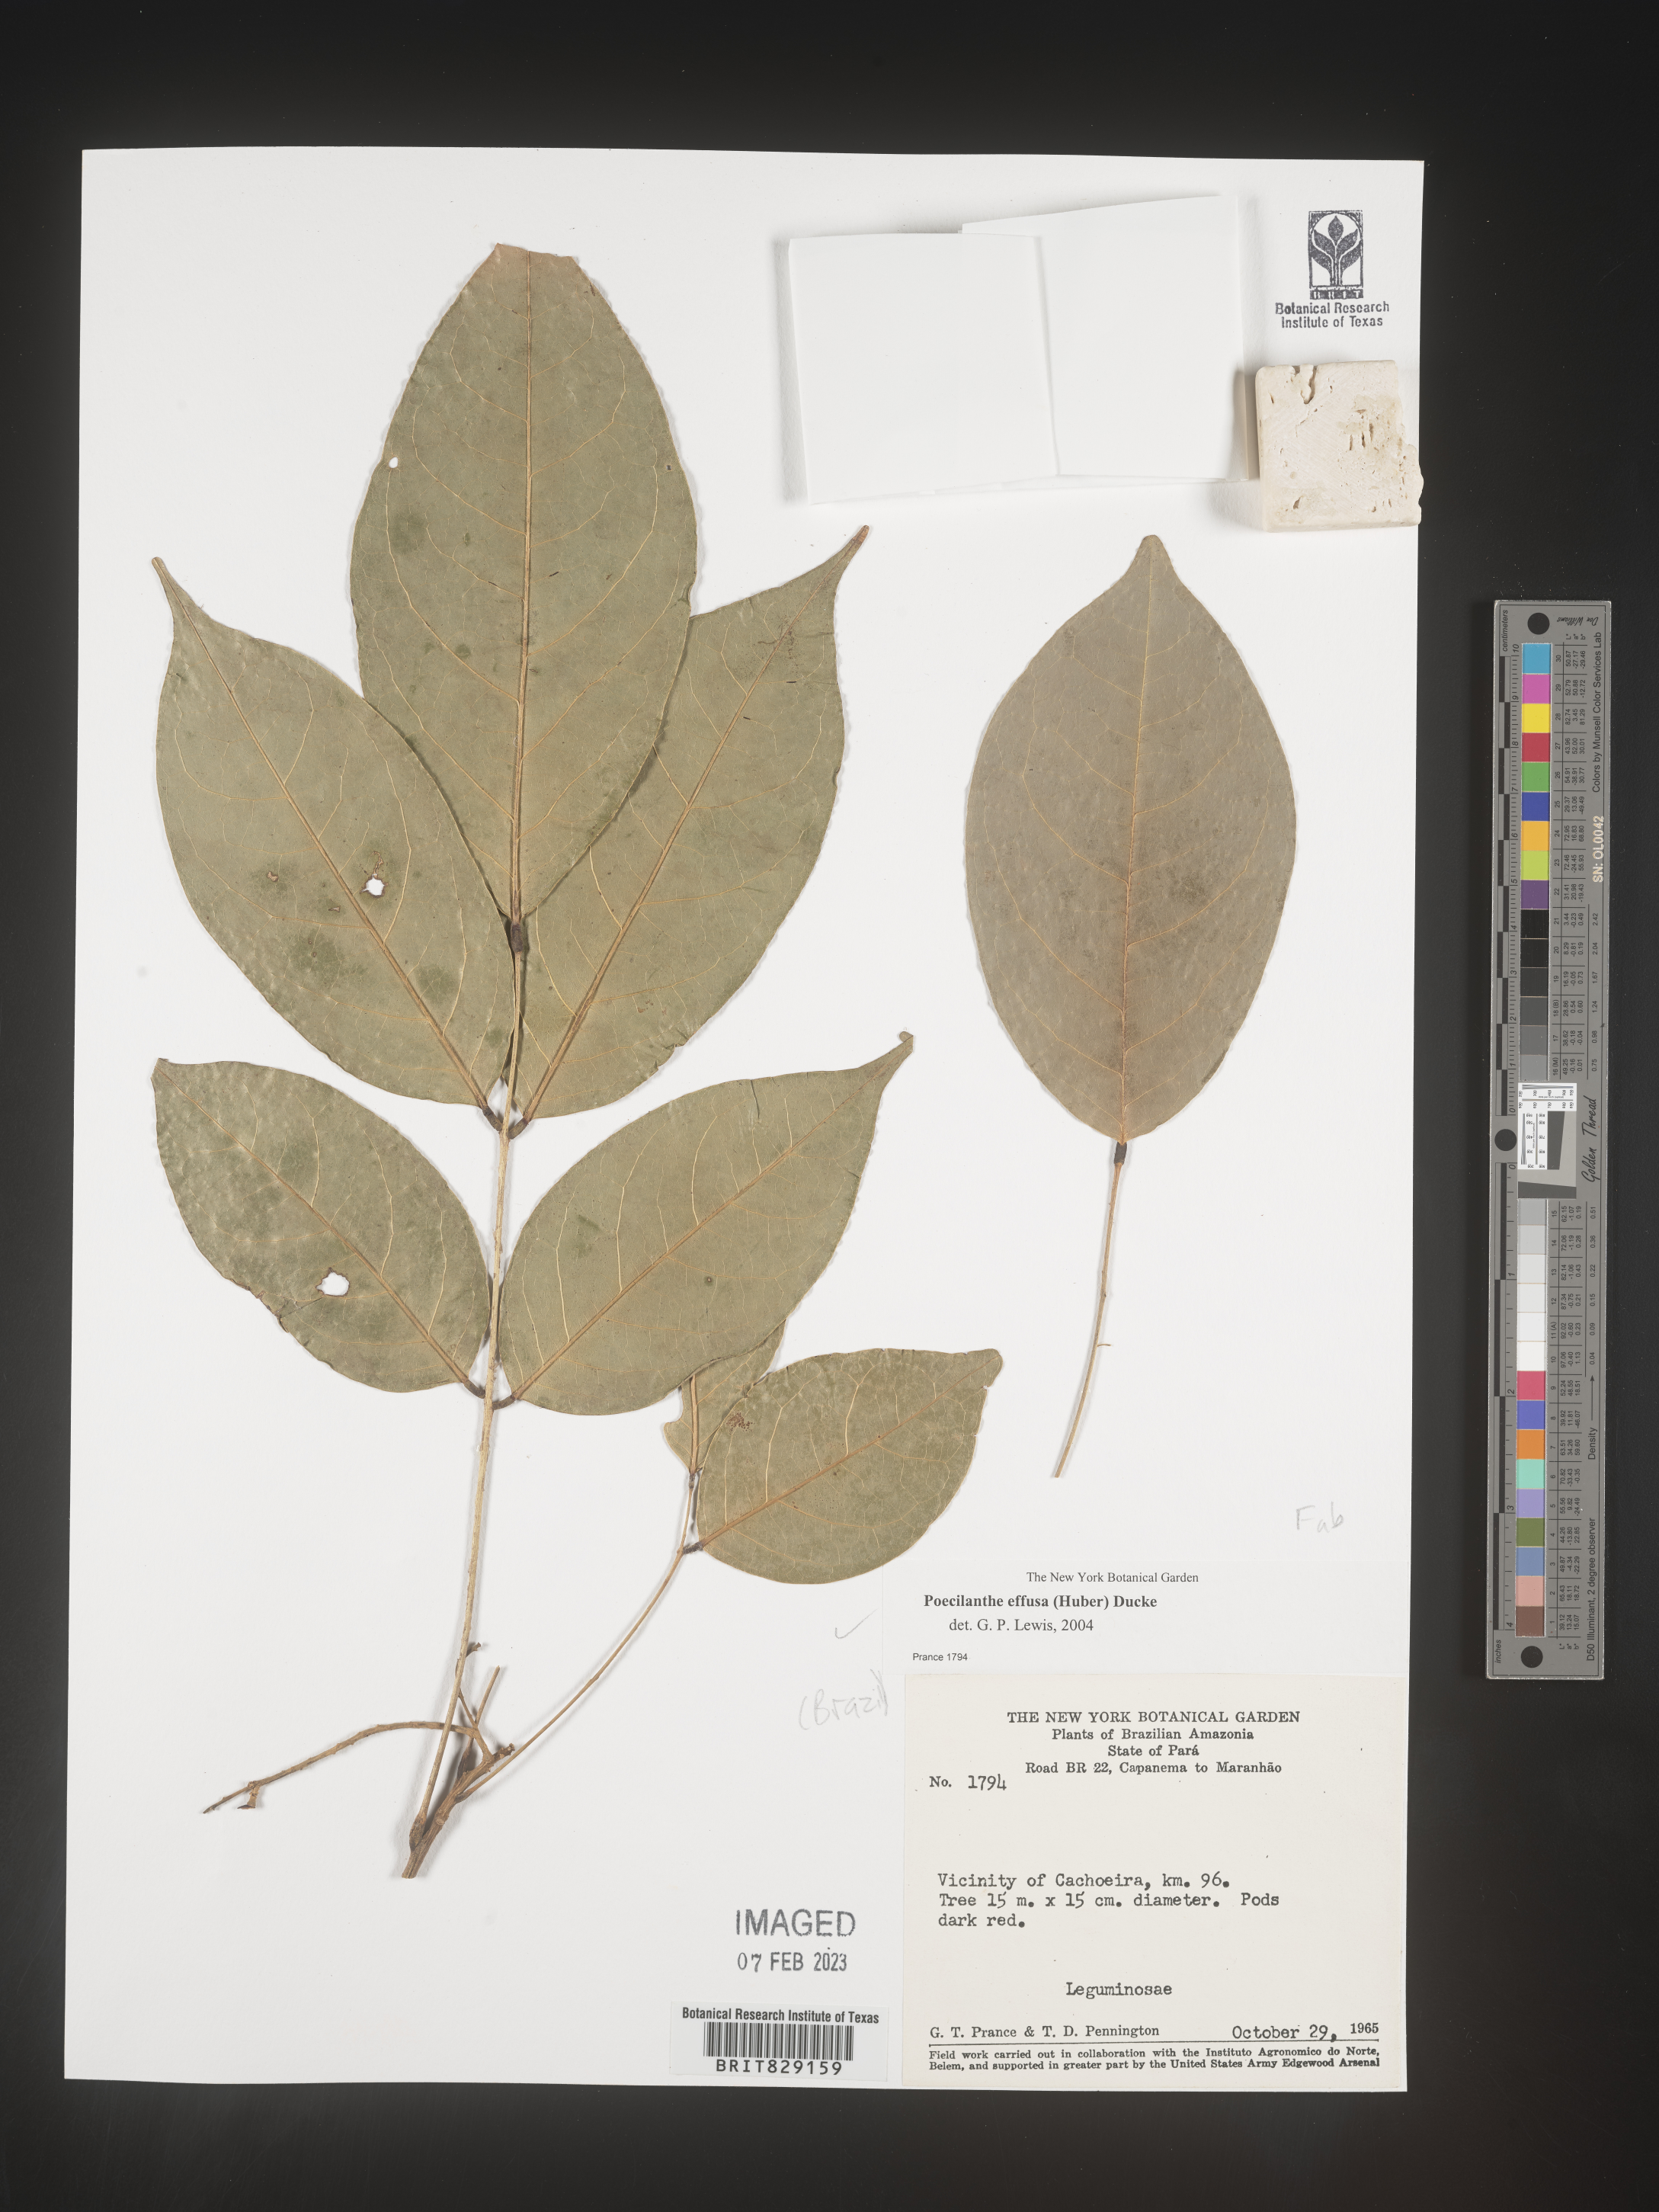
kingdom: Plantae
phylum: Tracheophyta
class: Magnoliopsida
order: Fabales
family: Fabaceae
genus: Poecilanthe
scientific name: Poecilanthe
